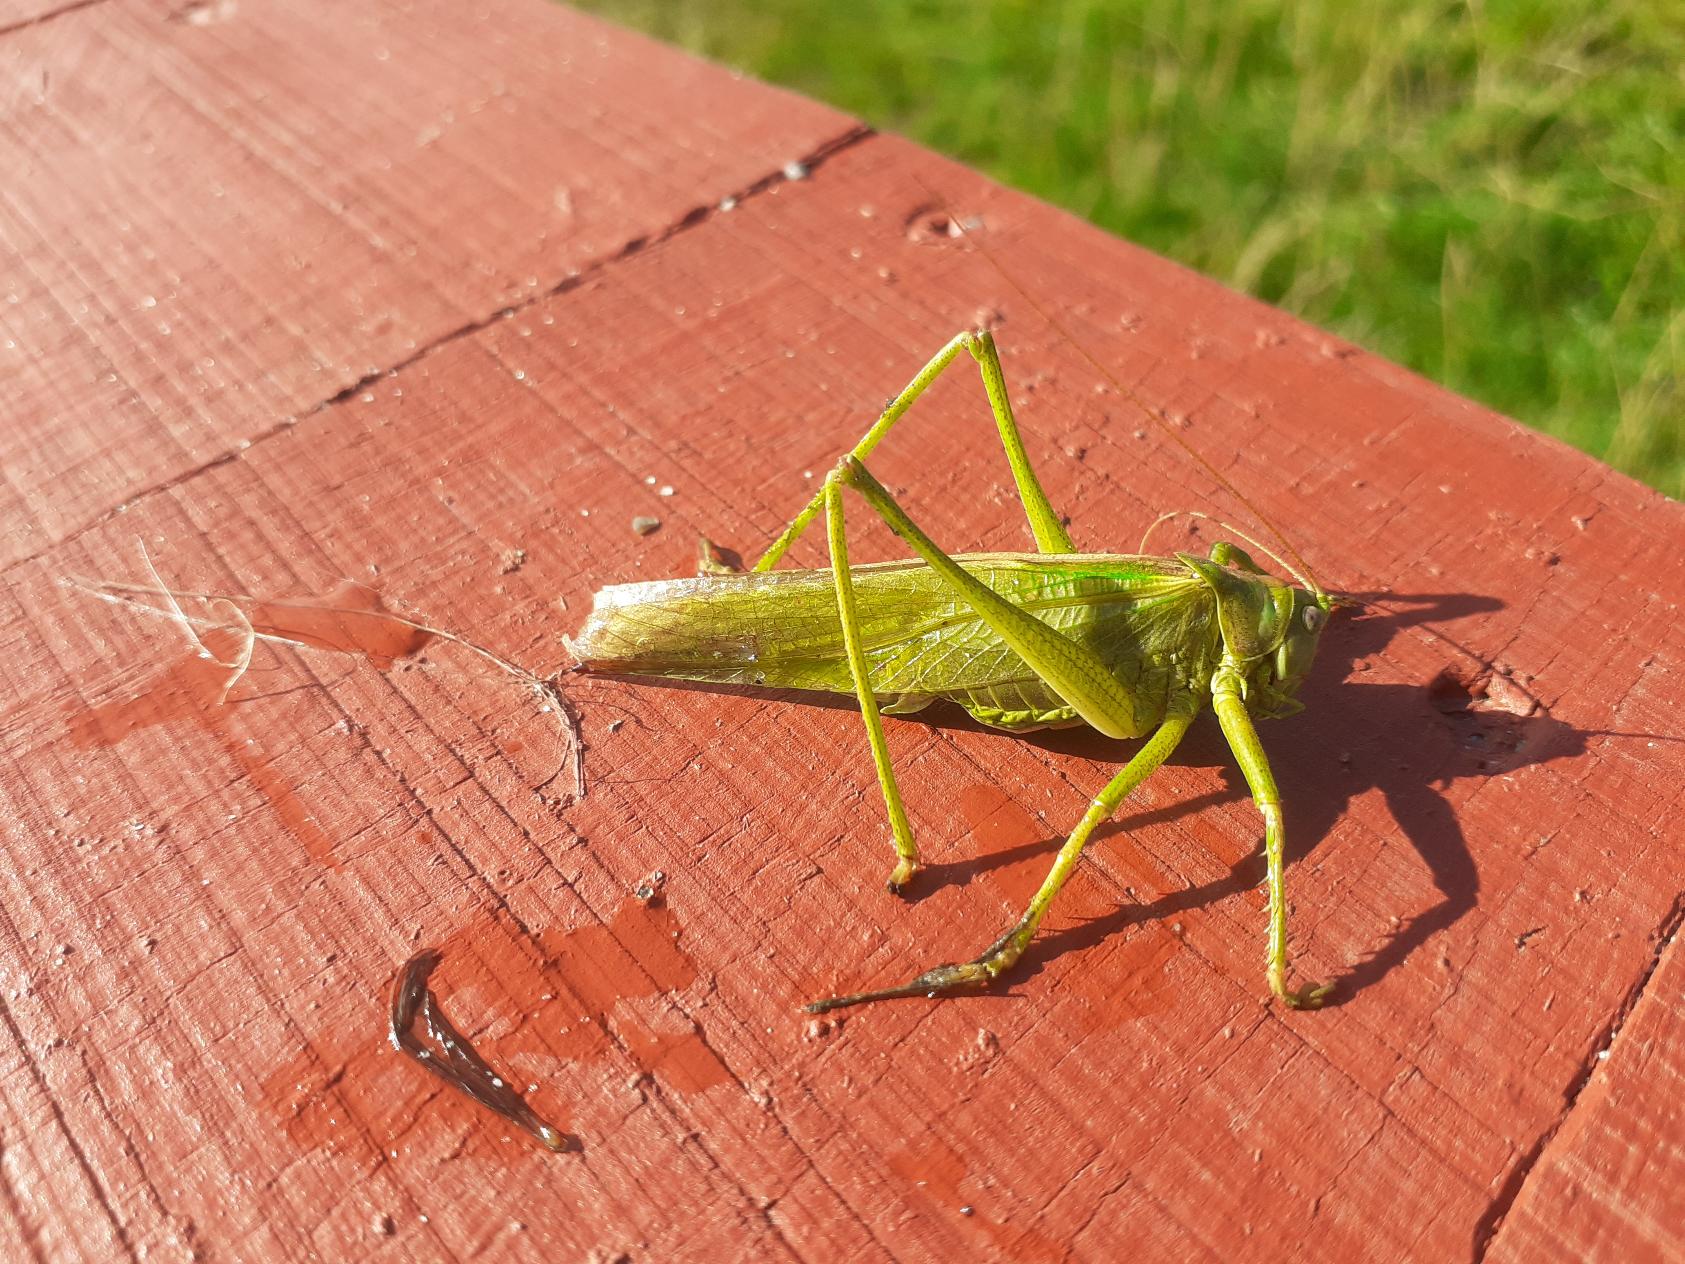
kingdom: Animalia
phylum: Arthropoda
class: Insecta
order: Orthoptera
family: Tettigoniidae
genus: Tettigonia
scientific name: Tettigonia viridissima
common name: Stor grøn løvgræshoppe
